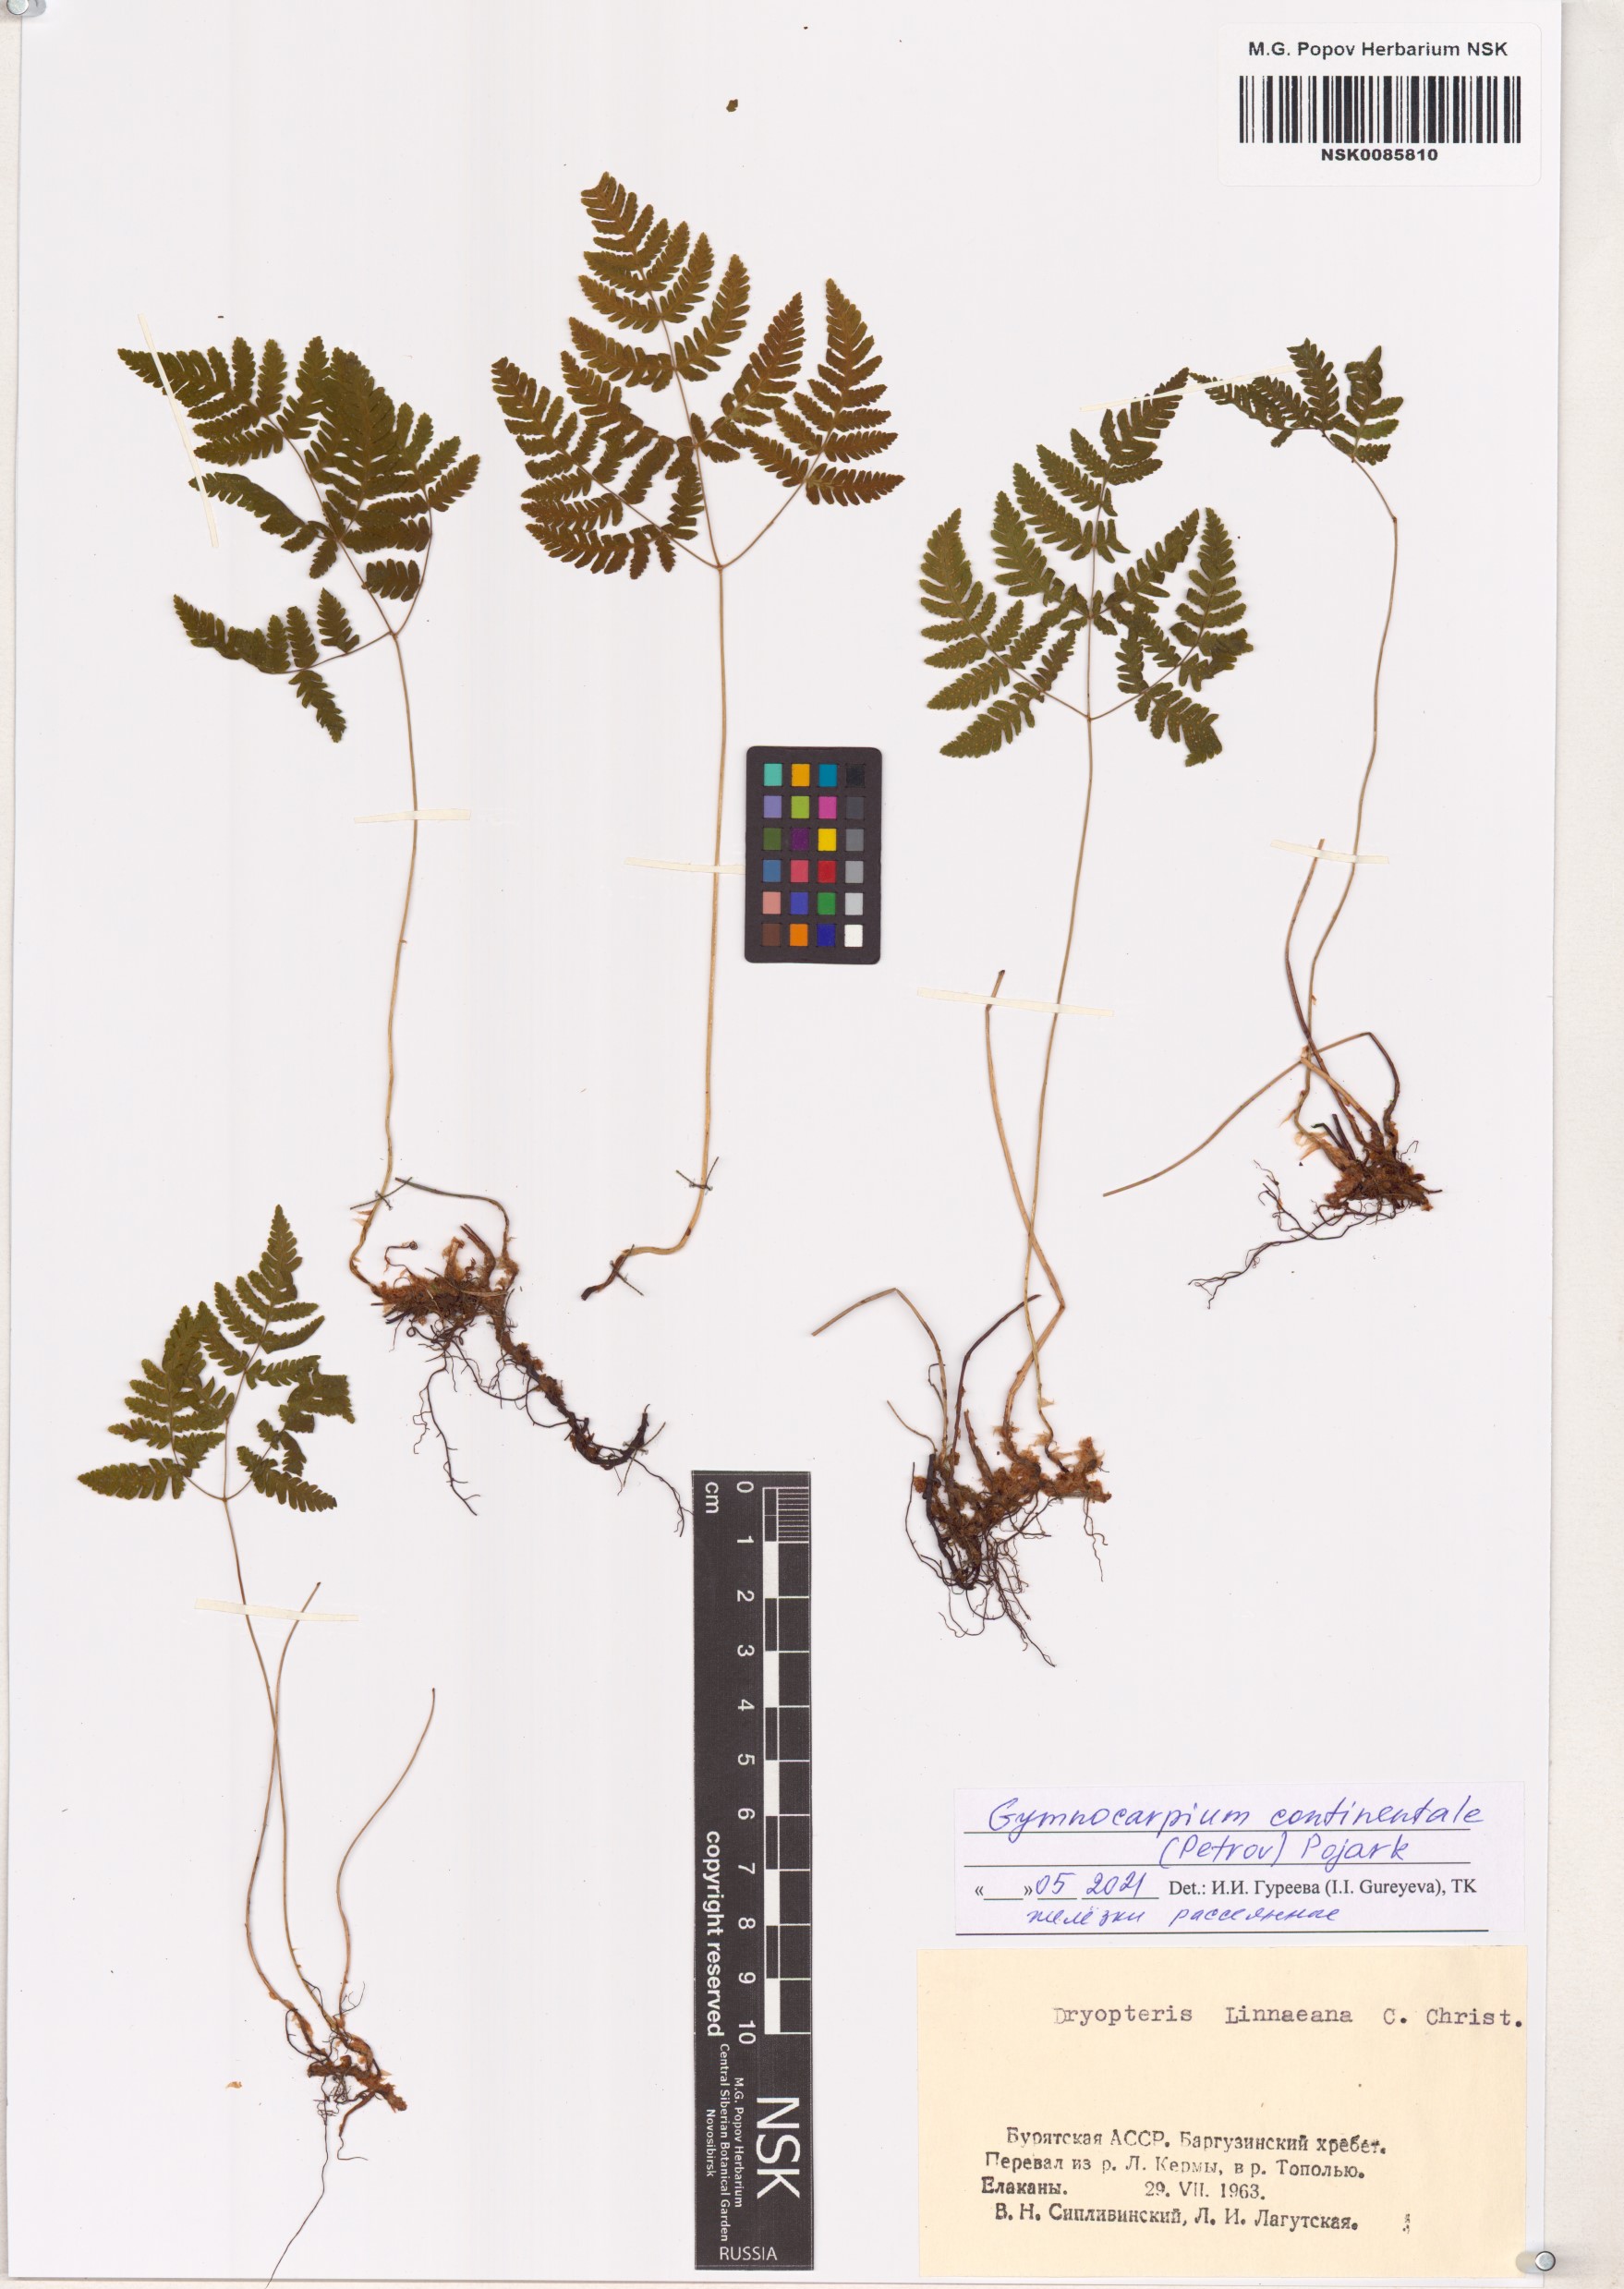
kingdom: Plantae
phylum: Tracheophyta
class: Polypodiopsida
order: Polypodiales
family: Cystopteridaceae
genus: Gymnocarpium
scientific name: Gymnocarpium continentale
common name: Asian oak fern
